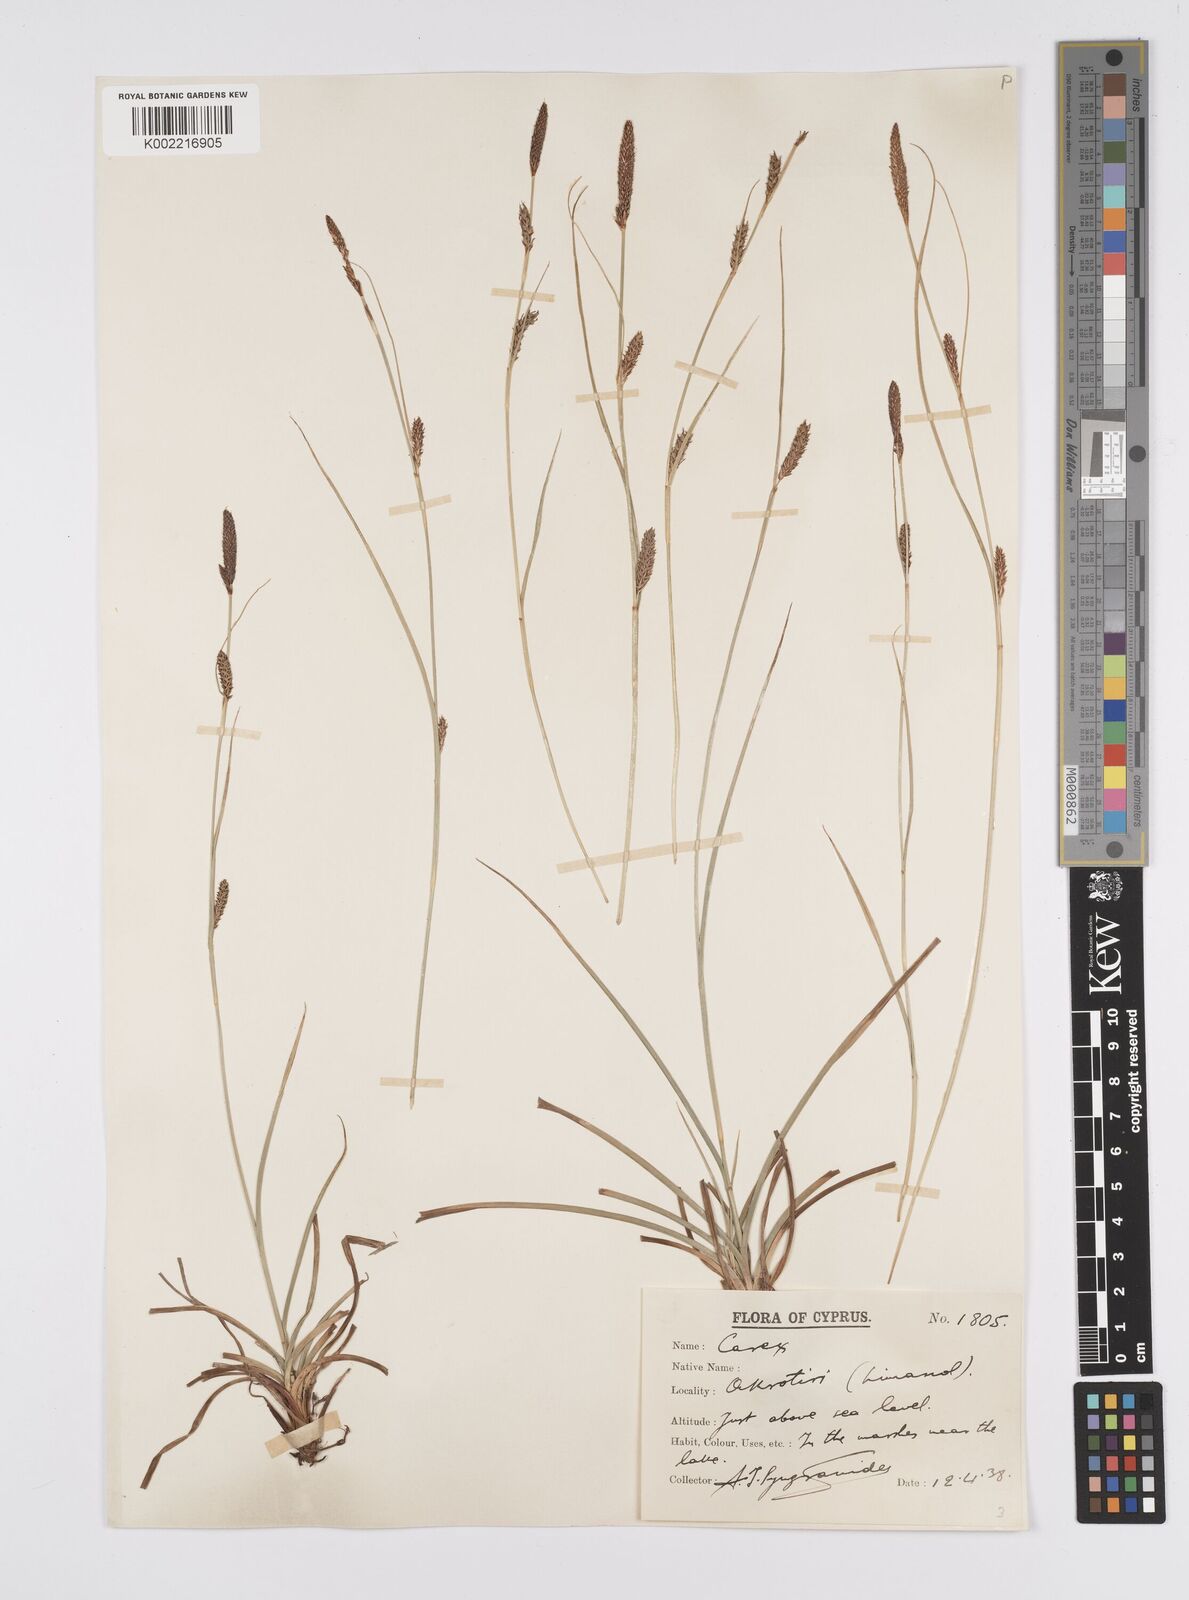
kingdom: Plantae
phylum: Tracheophyta
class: Liliopsida
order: Poales
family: Cyperaceae
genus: Carex
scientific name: Carex distans
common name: Distant sedge
